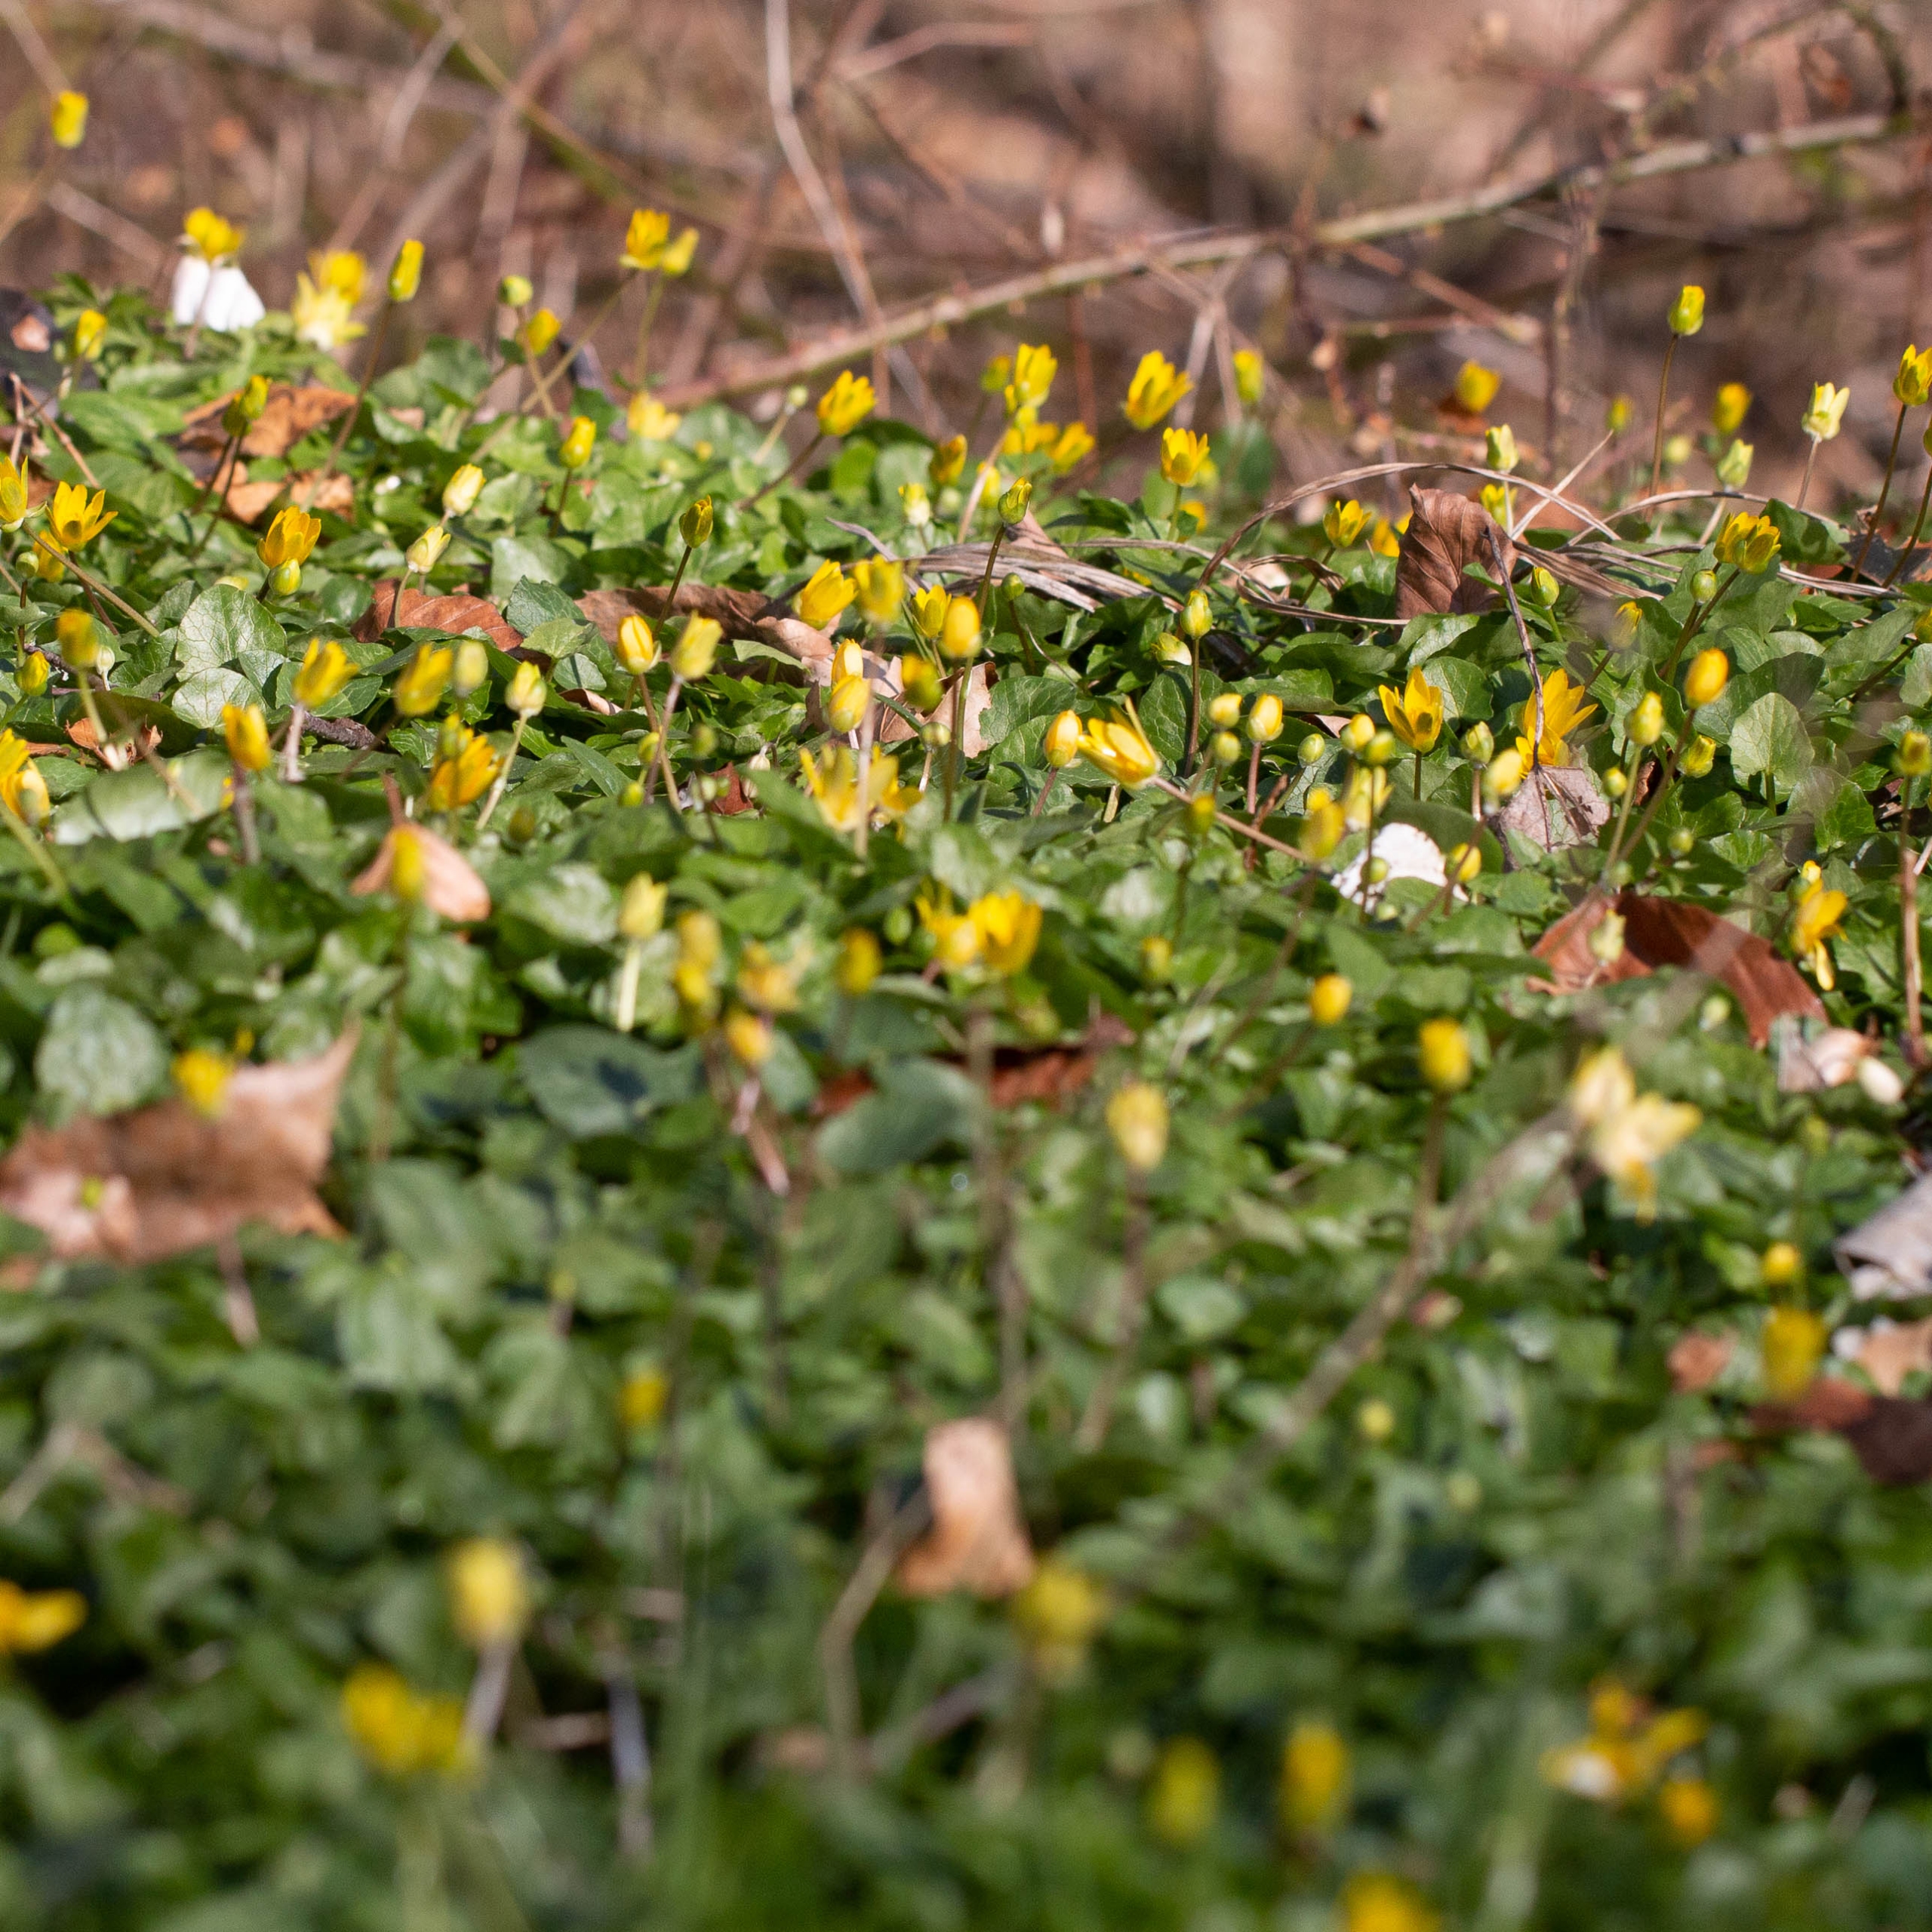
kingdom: Plantae
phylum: Tracheophyta
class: Magnoliopsida
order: Ranunculales
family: Ranunculaceae
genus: Ficaria
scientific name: Ficaria verna
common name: Vorterod
